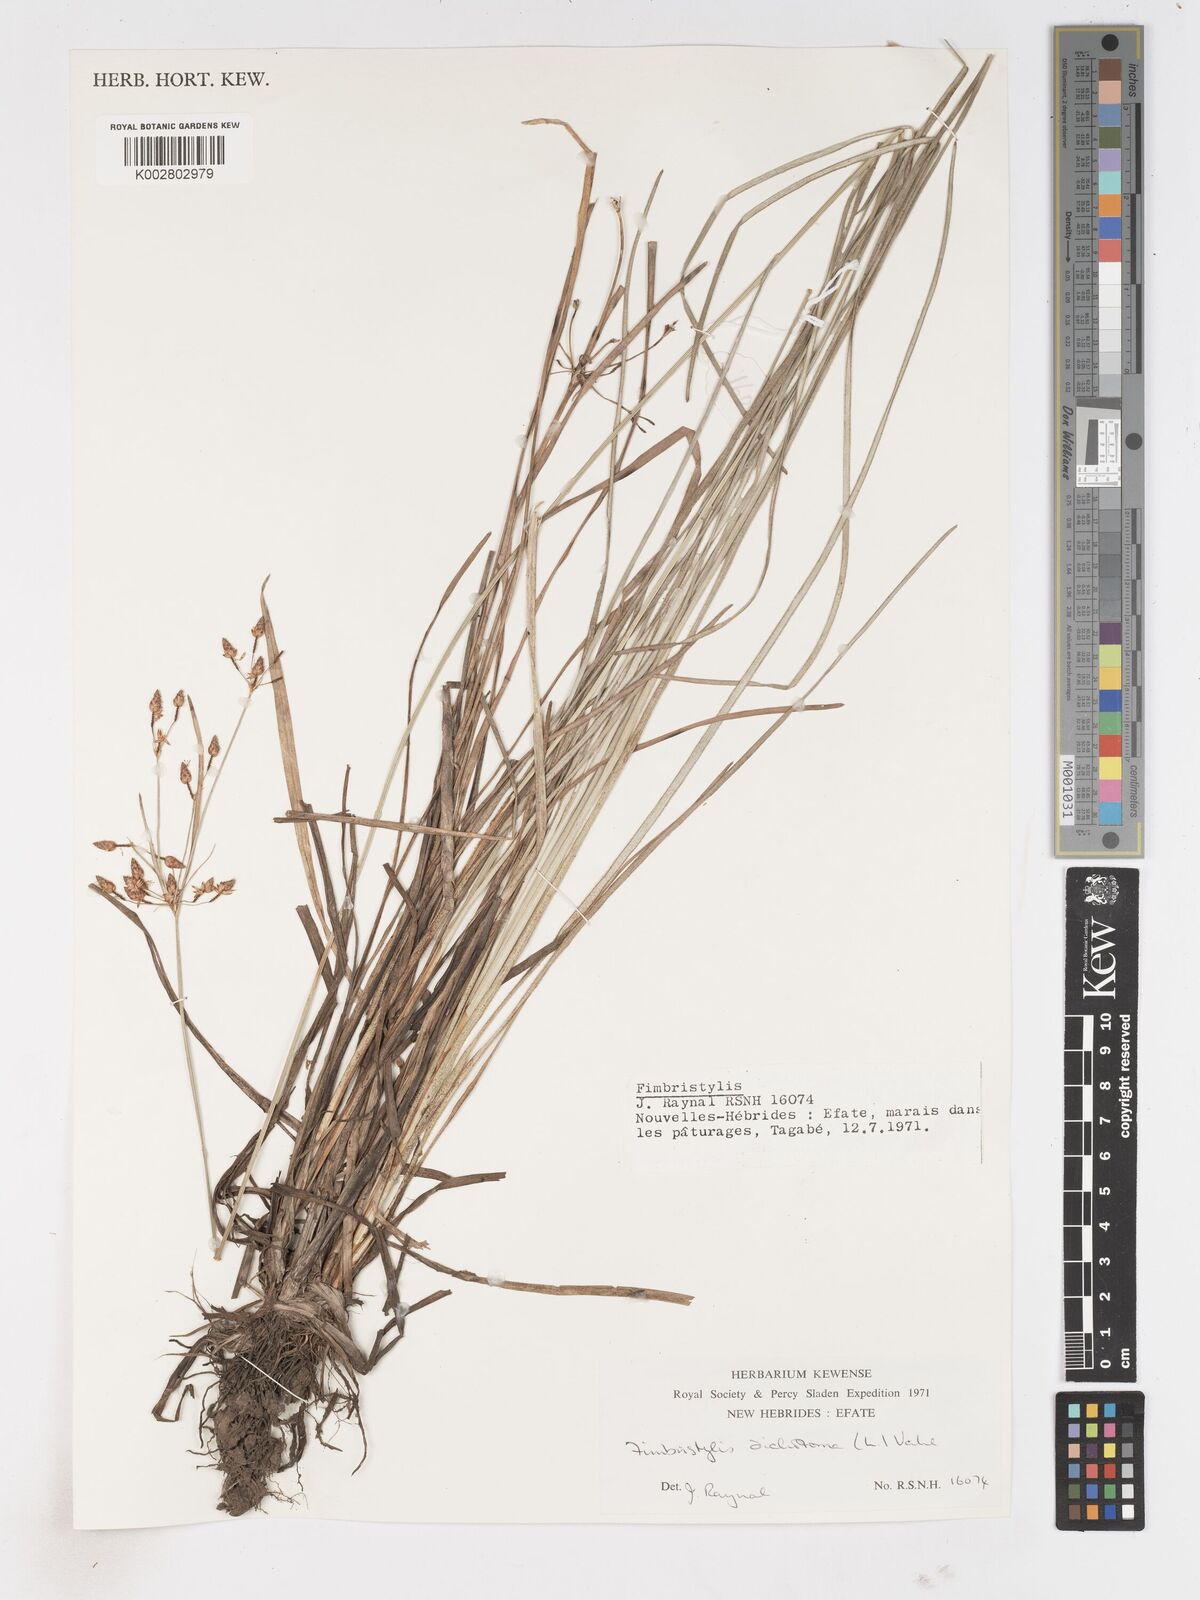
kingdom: Plantae
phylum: Tracheophyta
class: Liliopsida
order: Poales
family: Cyperaceae
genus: Fimbristylis
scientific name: Fimbristylis dichotoma
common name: Forked fimbry
